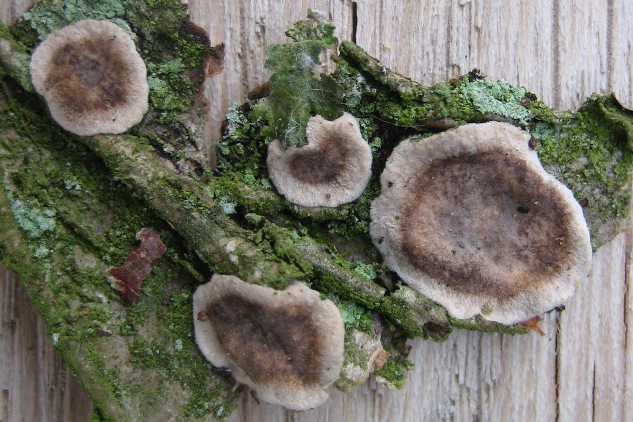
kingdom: Fungi
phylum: Basidiomycota
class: Agaricomycetes
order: Russulales
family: Stereaceae
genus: Stereum
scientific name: Stereum rugosum
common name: rynket lædersvamp
